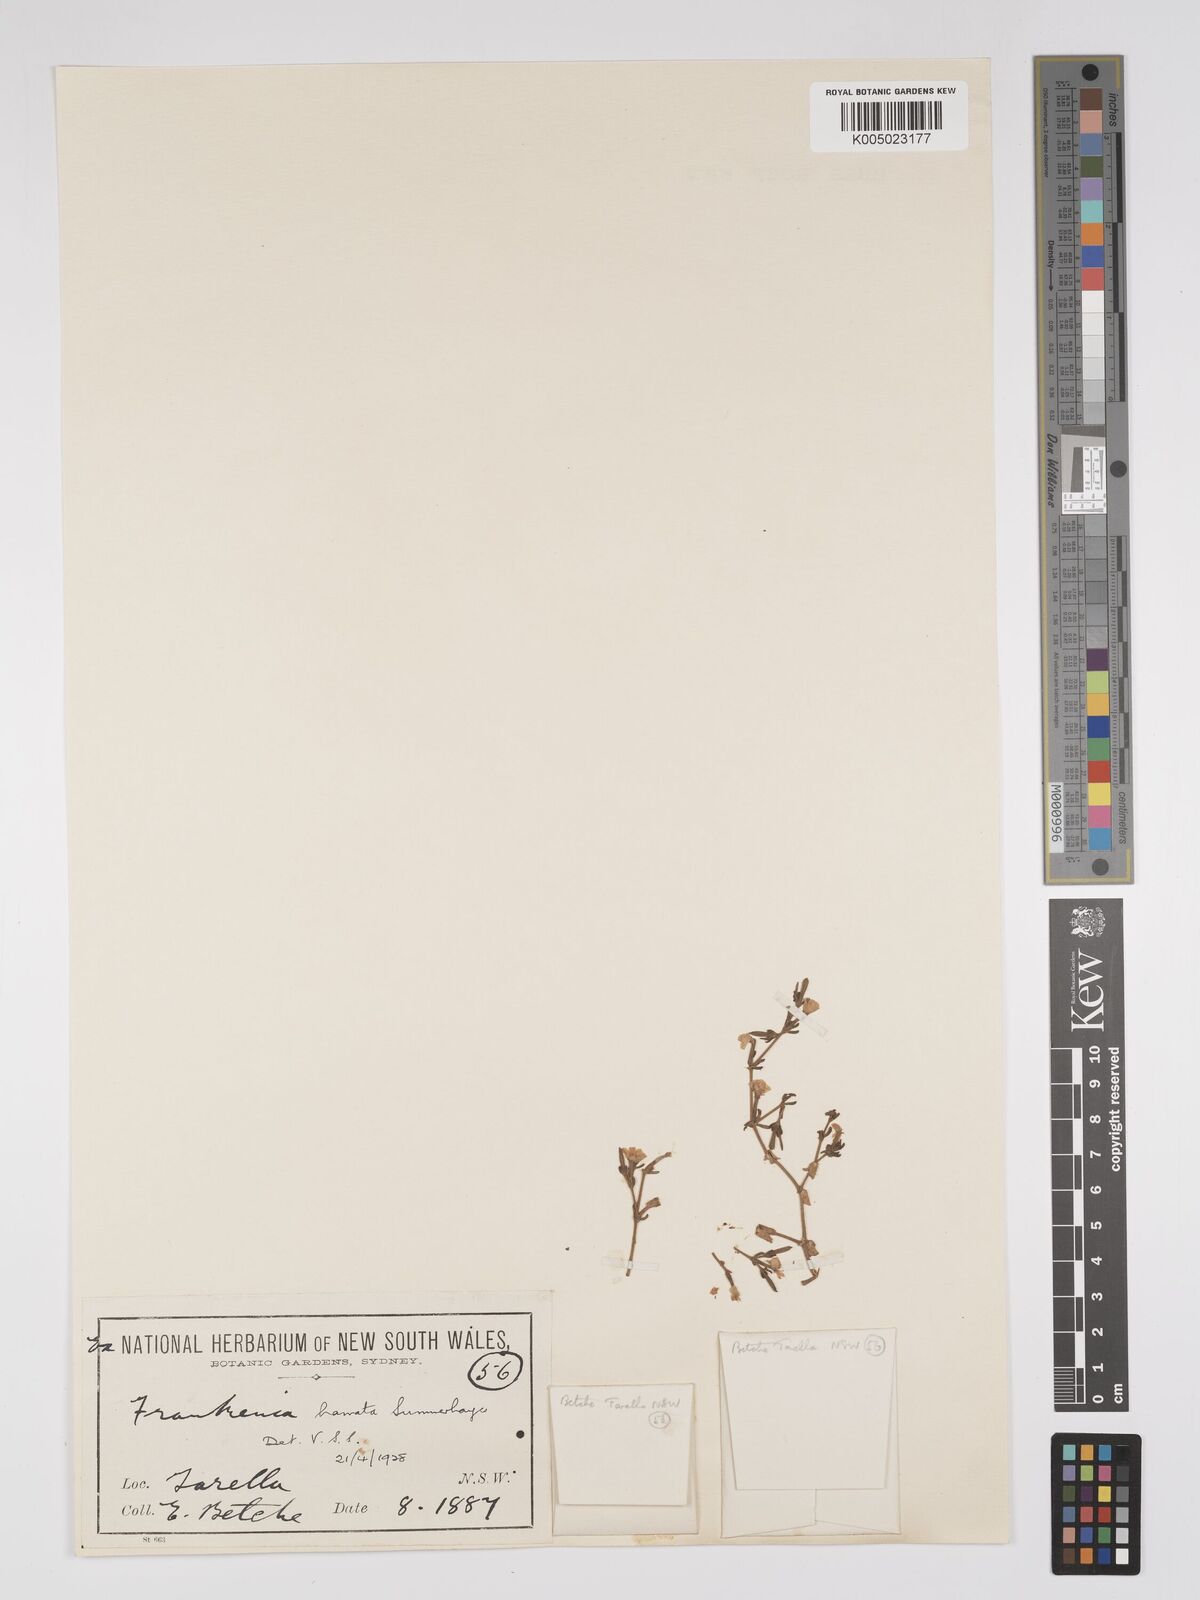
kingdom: Plantae
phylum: Tracheophyta
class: Magnoliopsida
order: Caryophyllales
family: Frankeniaceae
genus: Frankenia
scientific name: Frankenia uncinata
